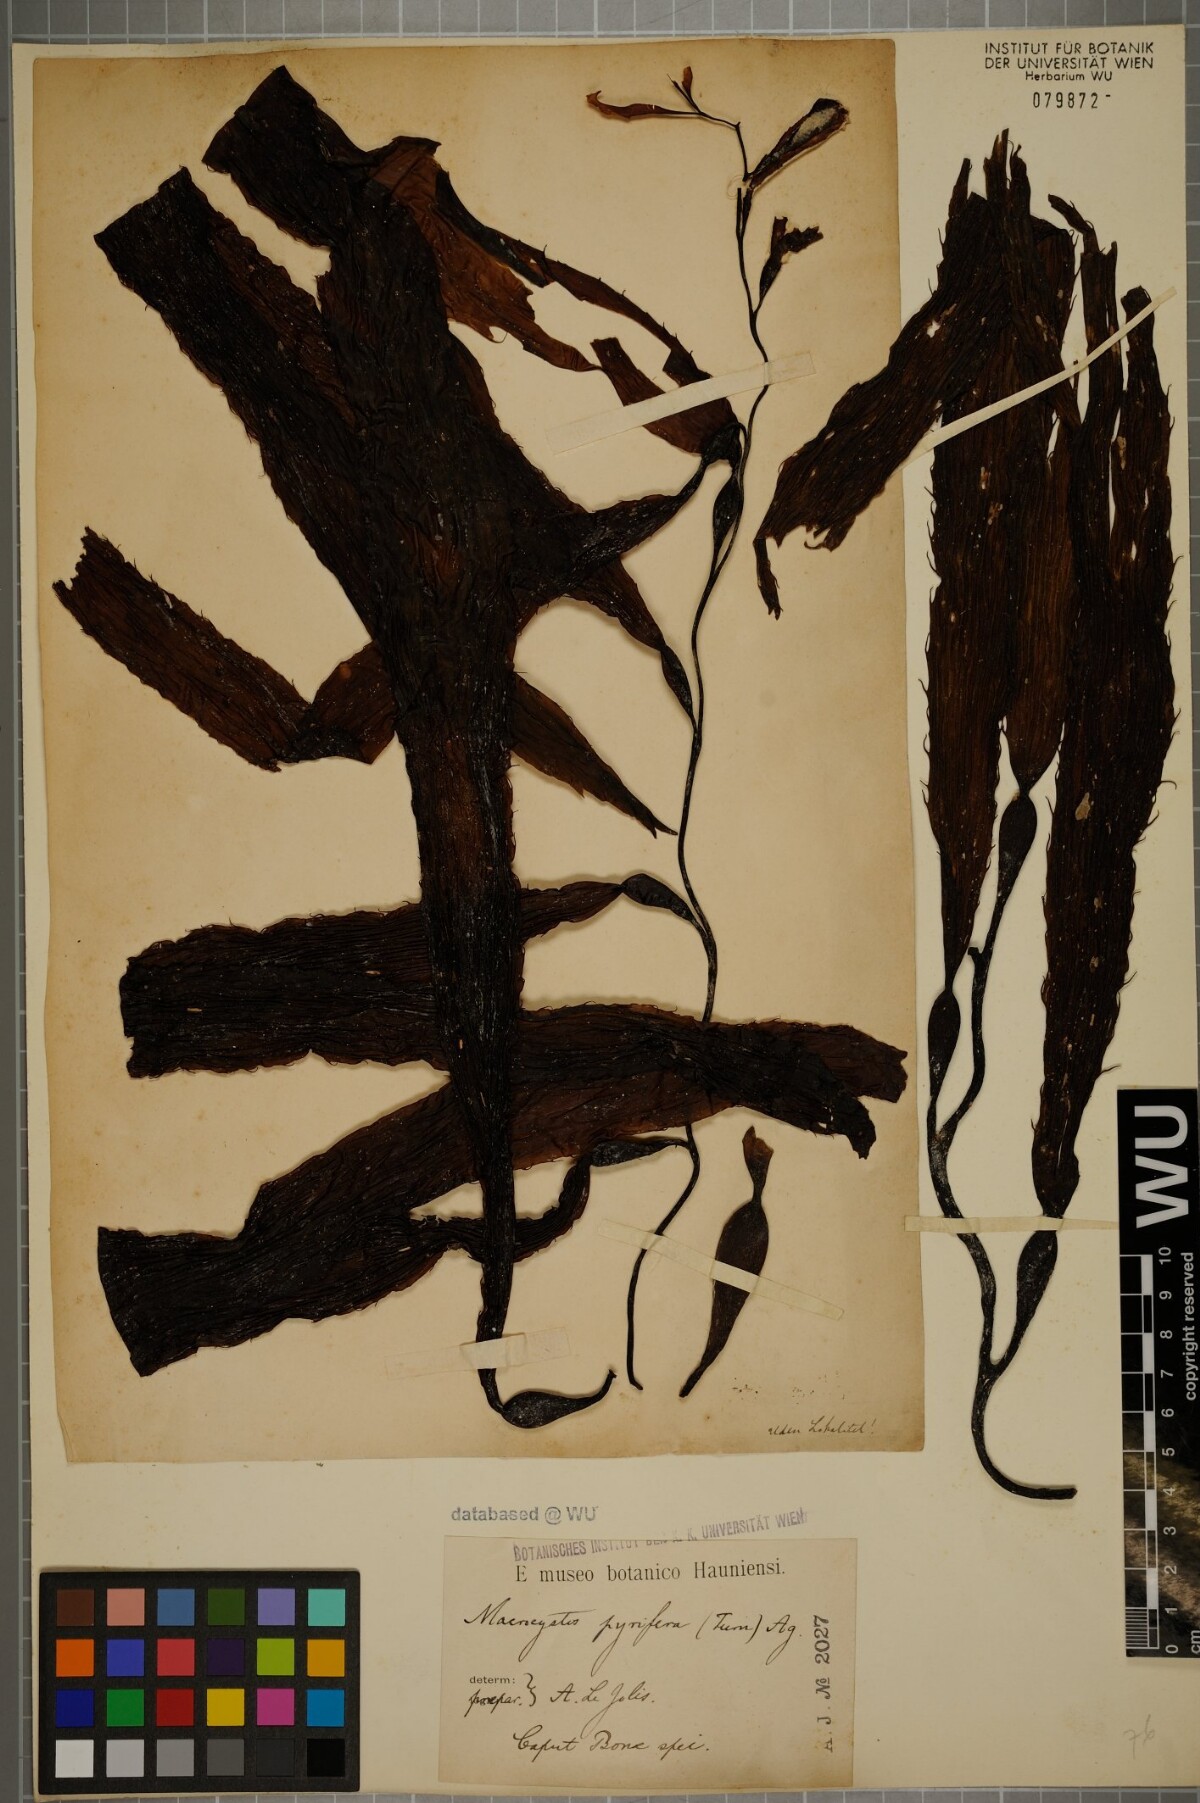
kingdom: Chromista
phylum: Ochrophyta
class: Phaeophyceae
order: Laminariales
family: Laminariaceae
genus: Macrocystis
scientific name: Macrocystis pyrifera
